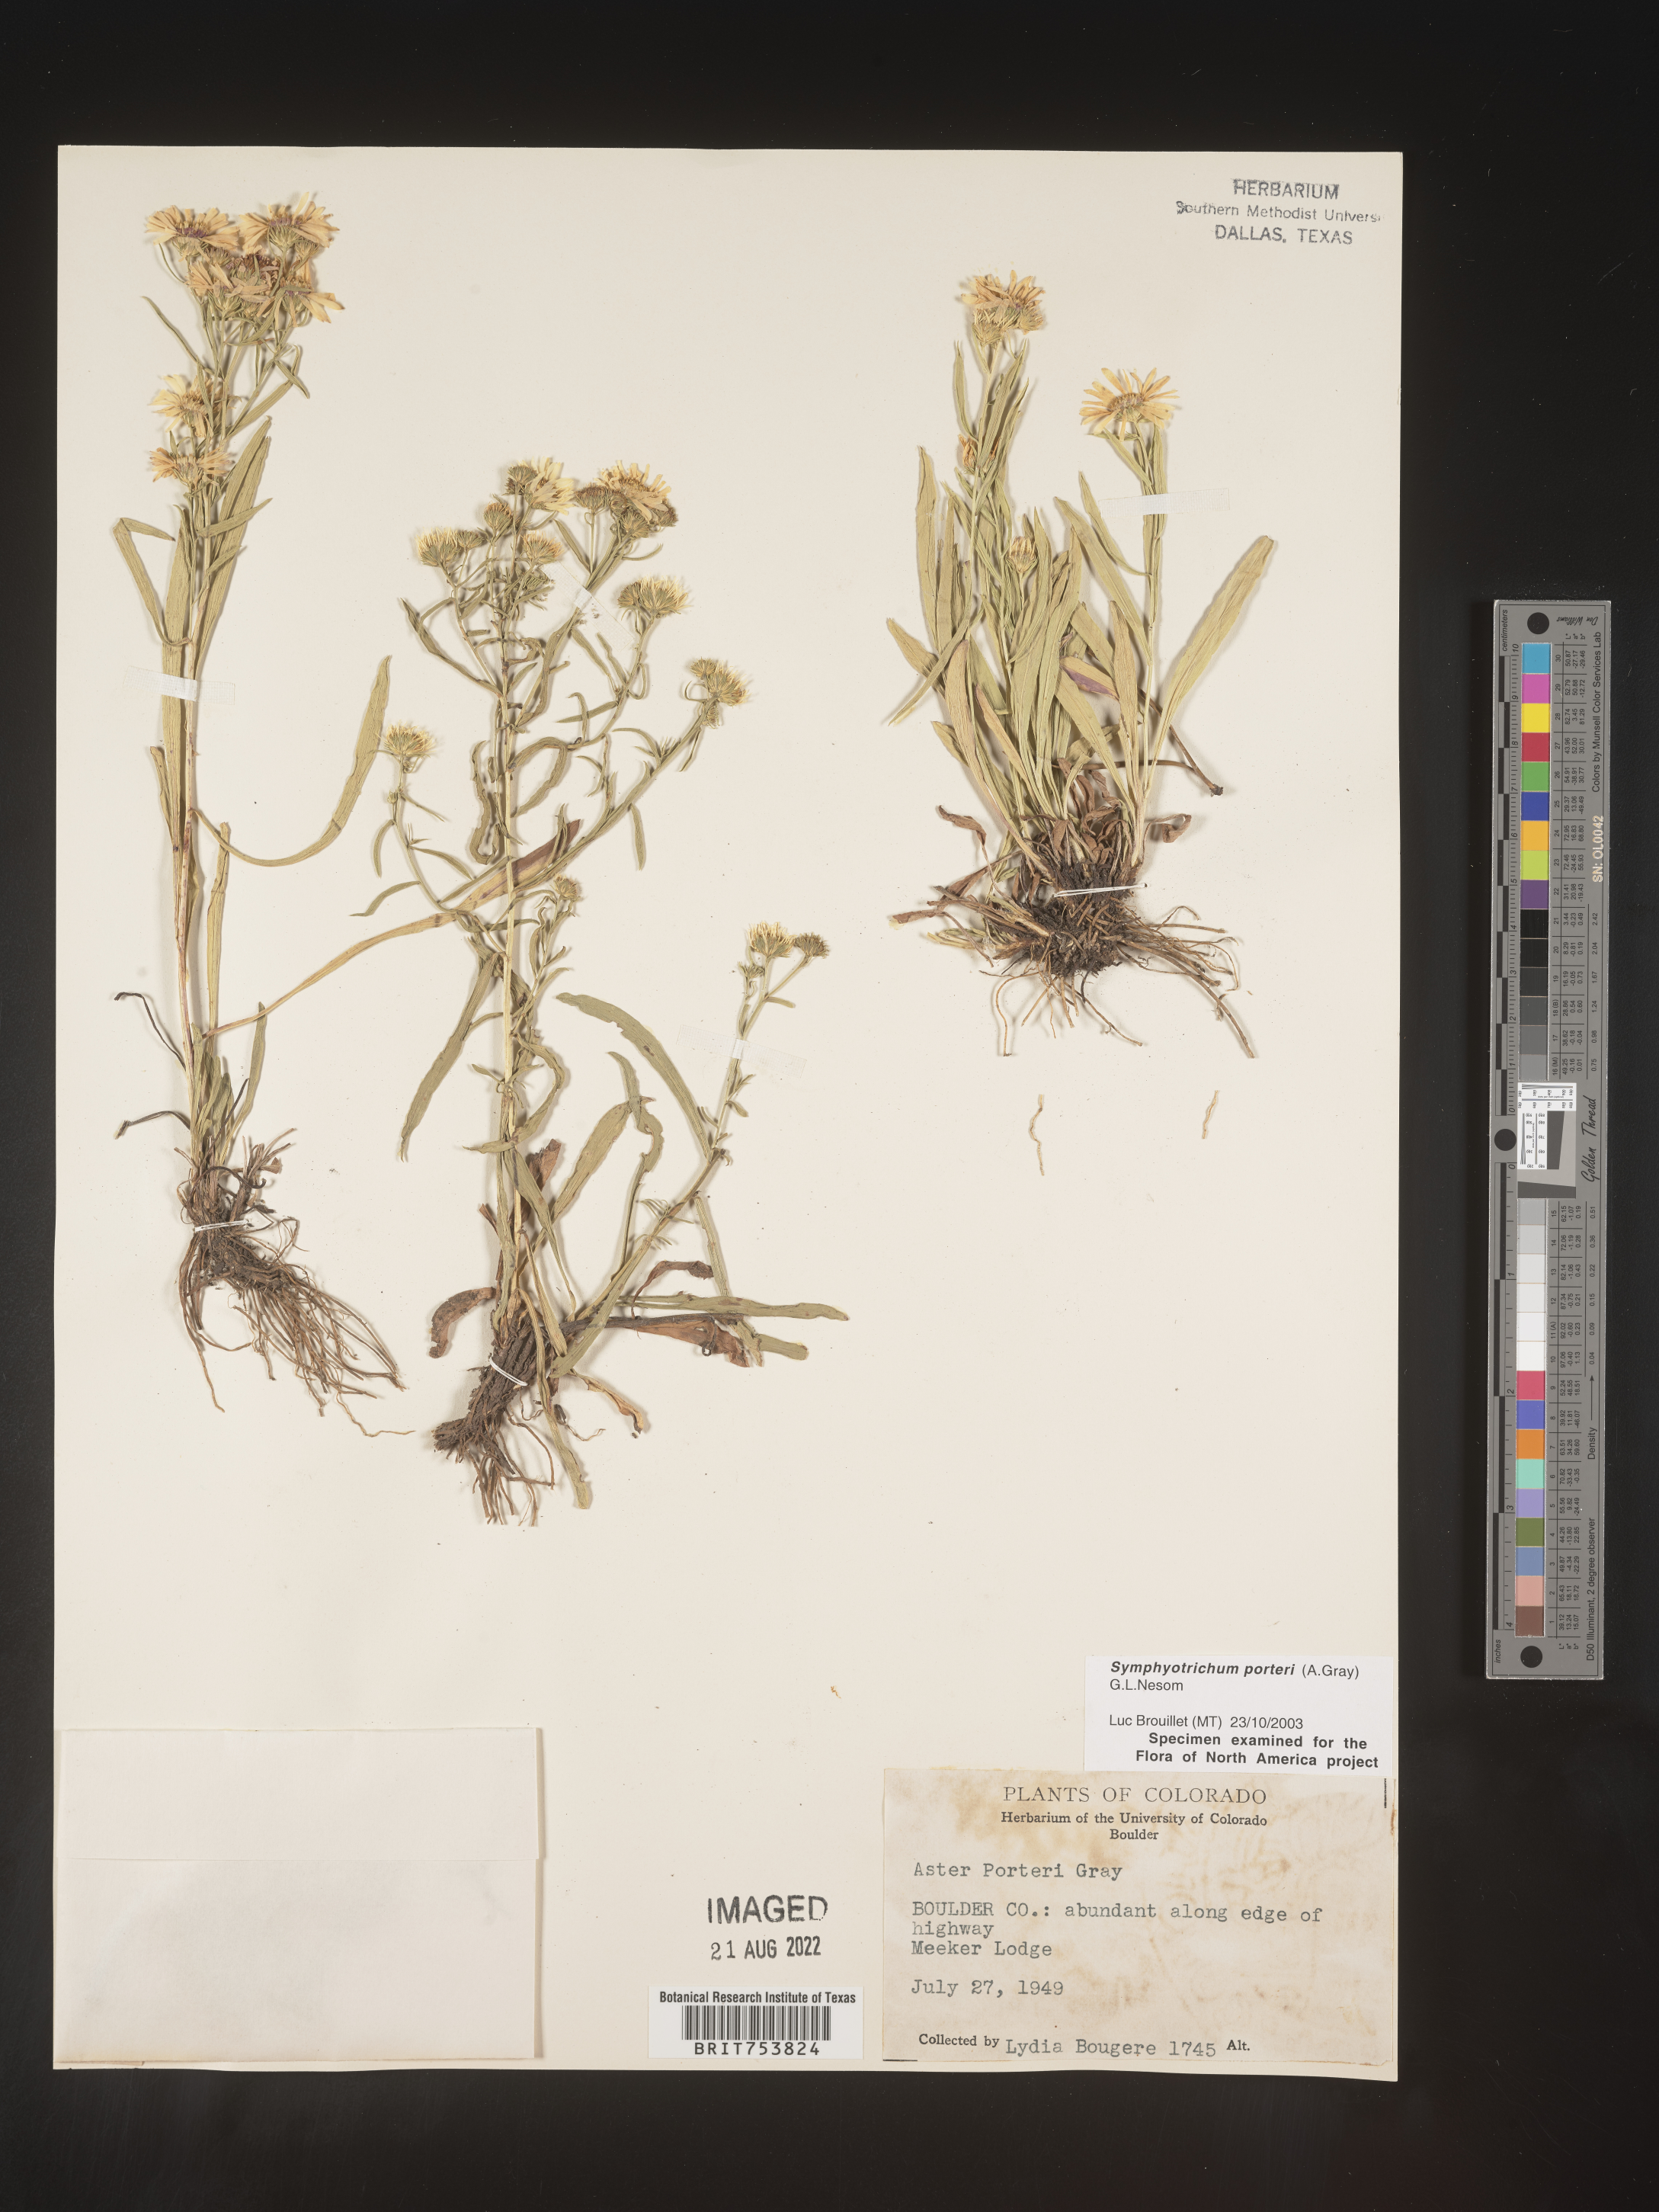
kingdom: Plantae
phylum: Tracheophyta
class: Magnoliopsida
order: Asterales
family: Asteraceae
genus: Symphyotrichum
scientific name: Symphyotrichum porteri
